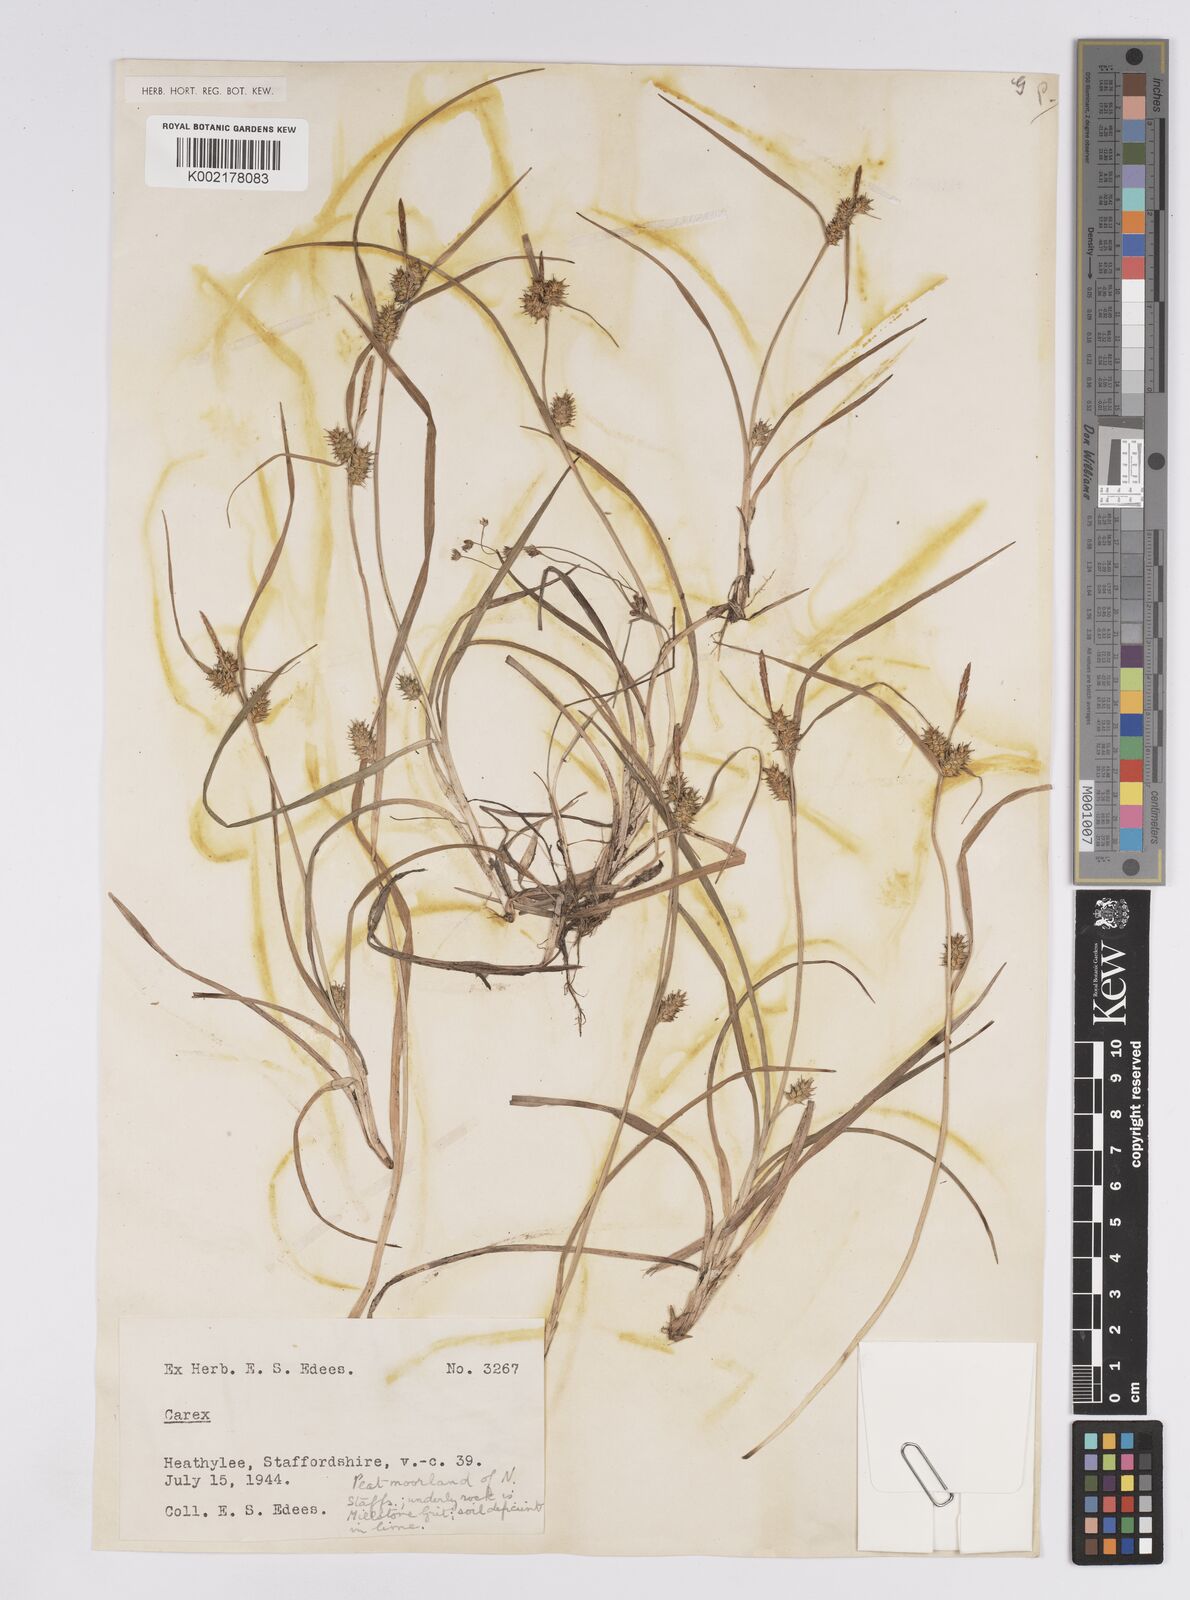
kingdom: Plantae
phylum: Tracheophyta
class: Liliopsida
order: Poales
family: Cyperaceae
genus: Carex
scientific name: Carex demissa
